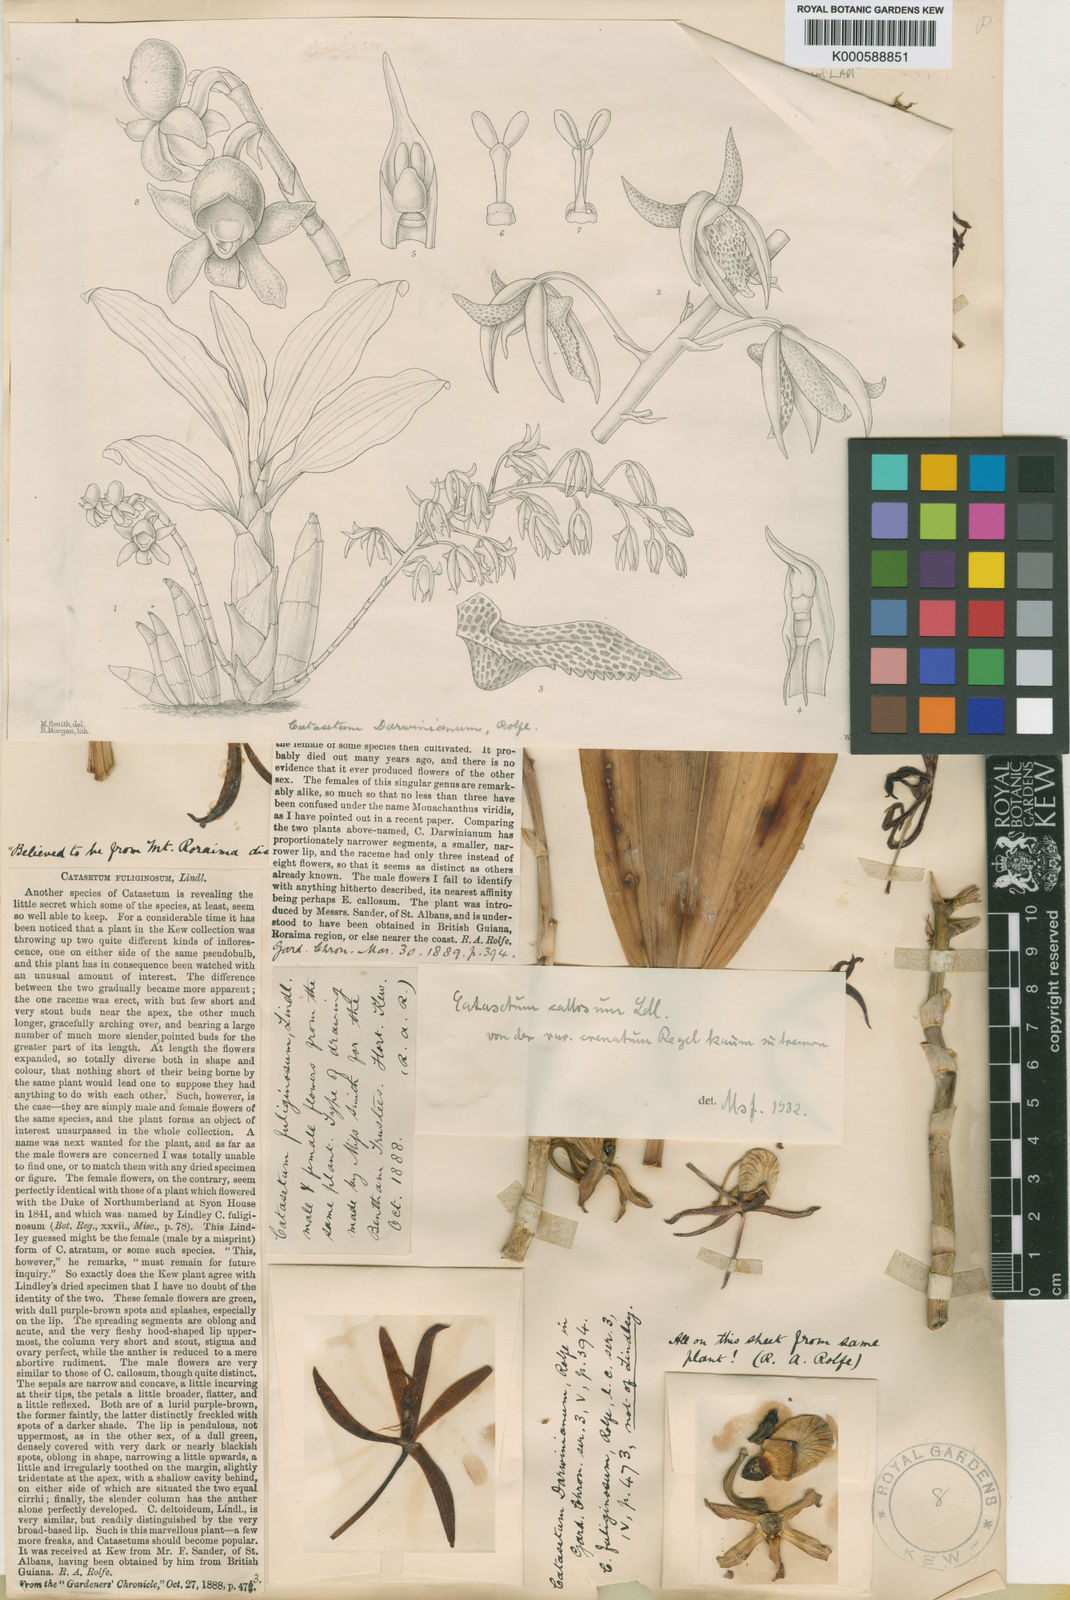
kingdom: Plantae
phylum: Tracheophyta
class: Liliopsida
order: Asparagales
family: Orchidaceae
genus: Catasetum
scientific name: Catasetum callosum
